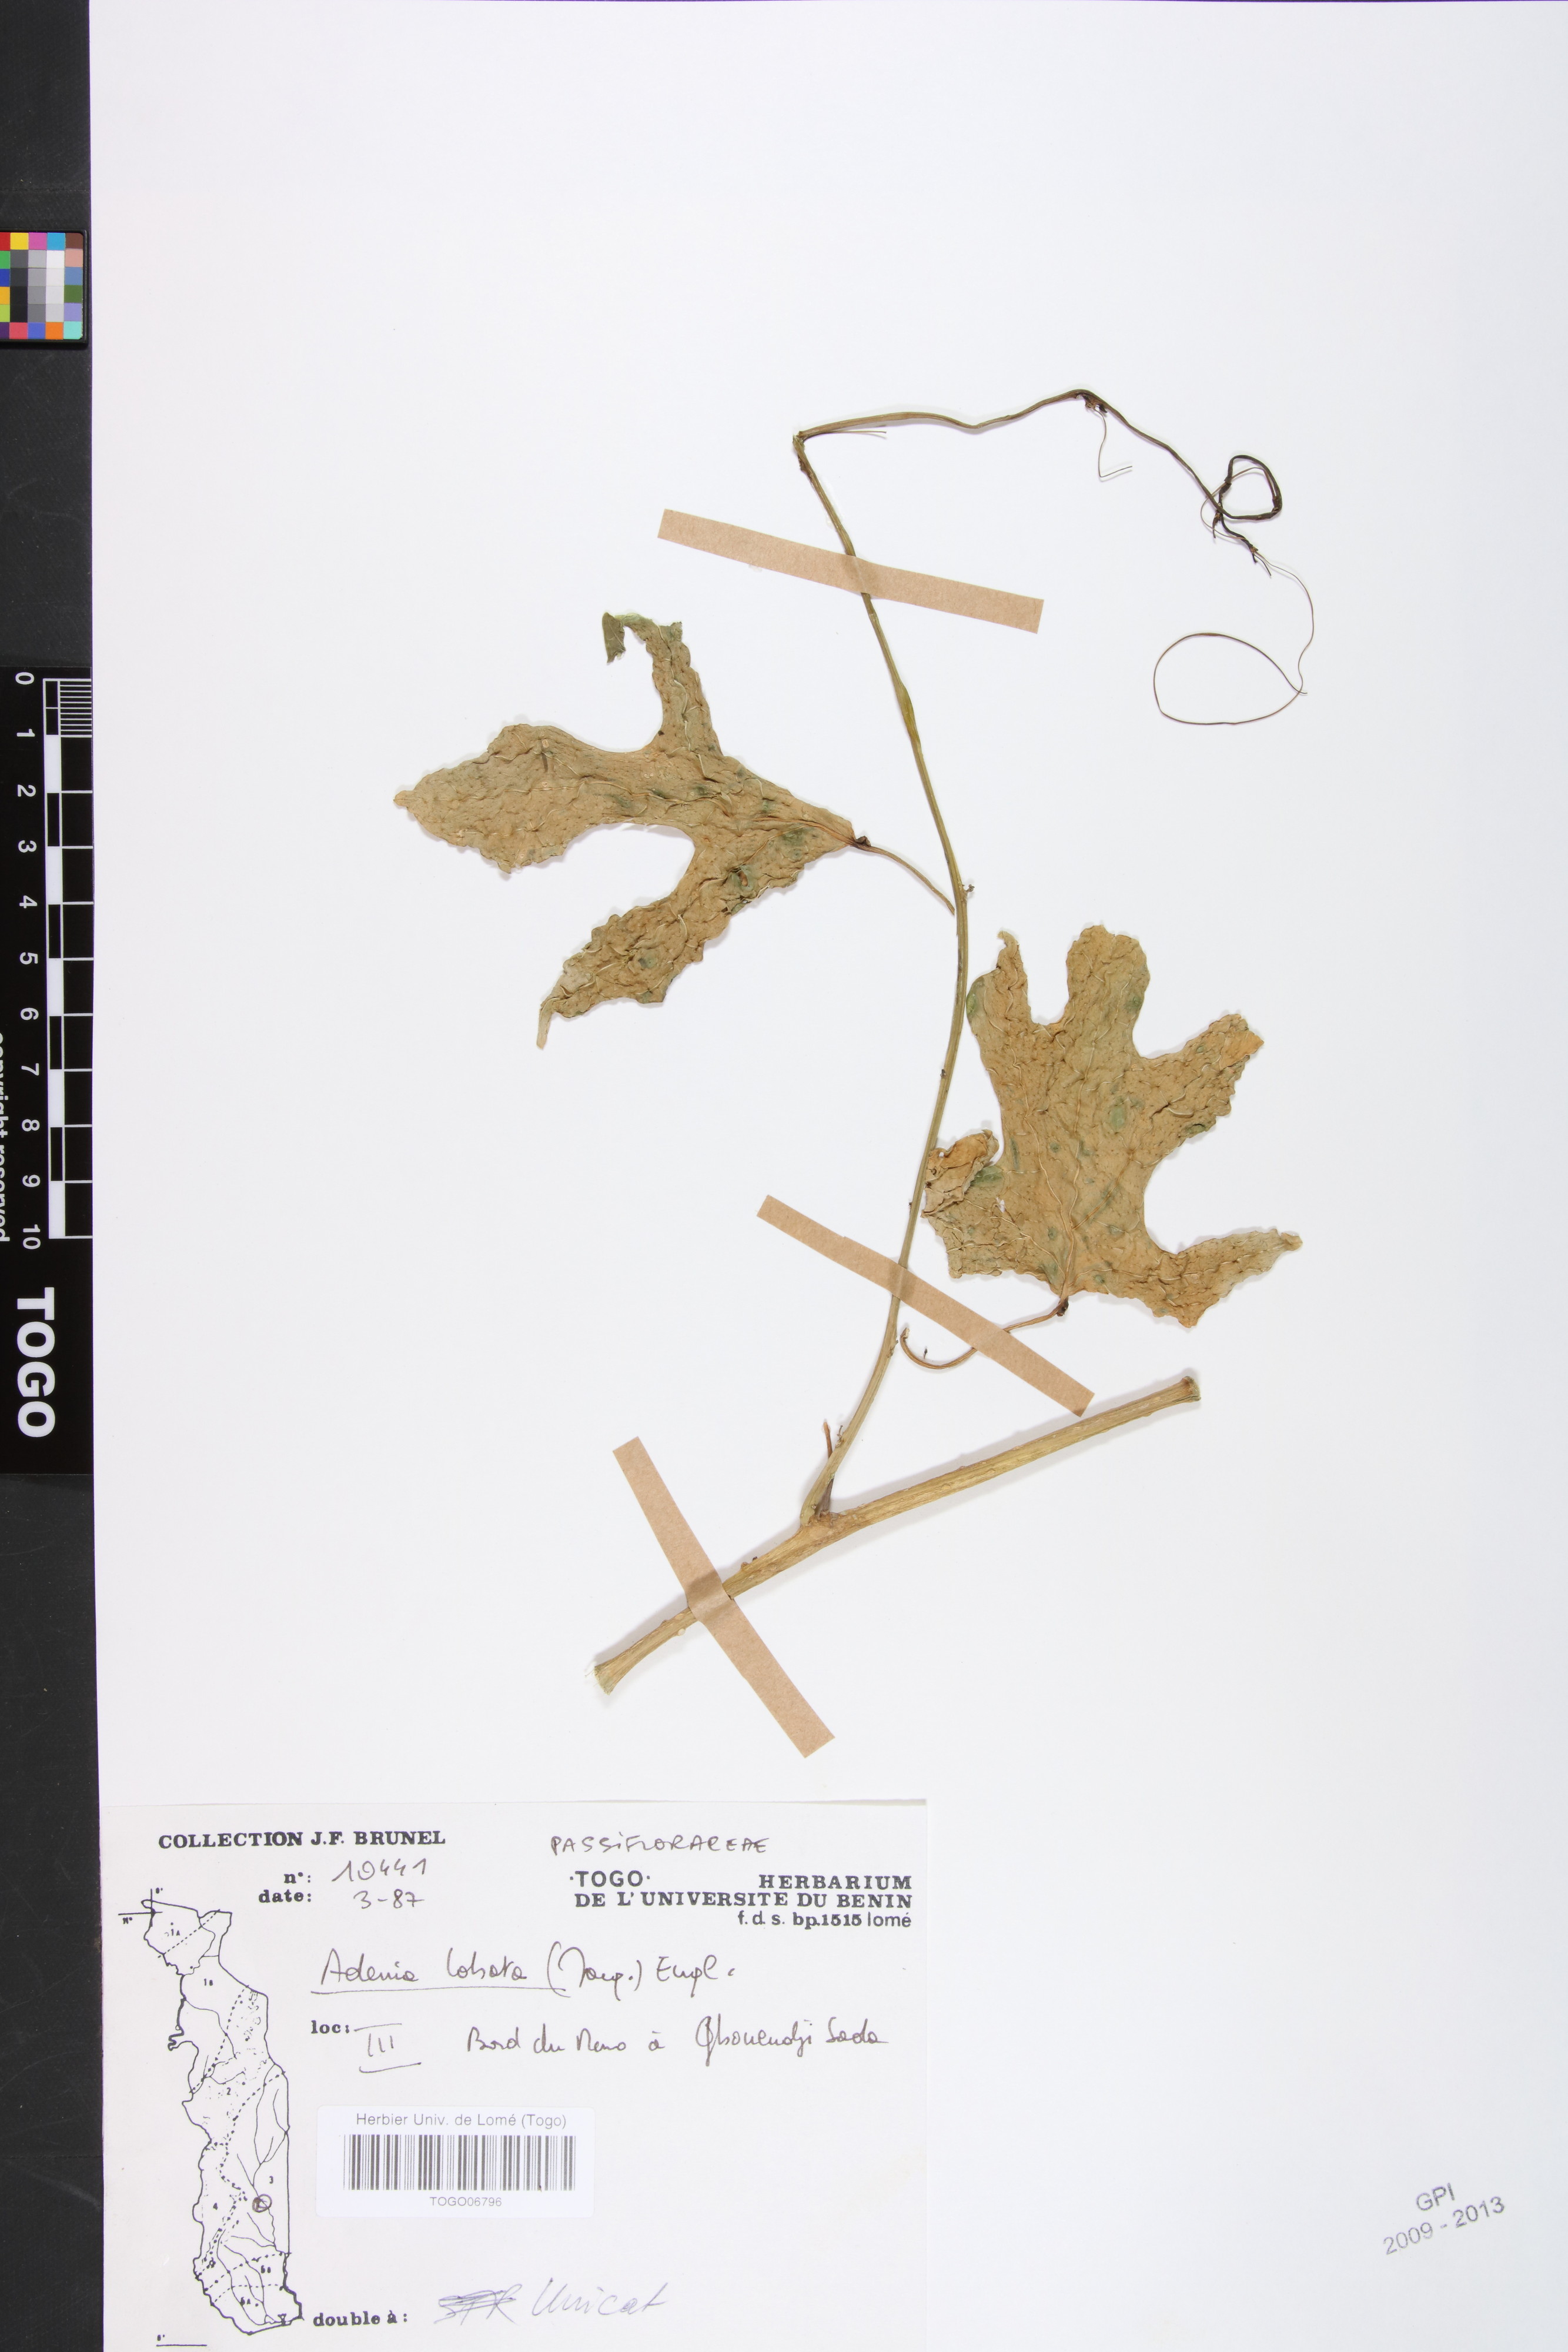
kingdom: Plantae
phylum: Tracheophyta
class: Magnoliopsida
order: Malpighiales
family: Passifloraceae
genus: Adenia
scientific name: Adenia lobata
